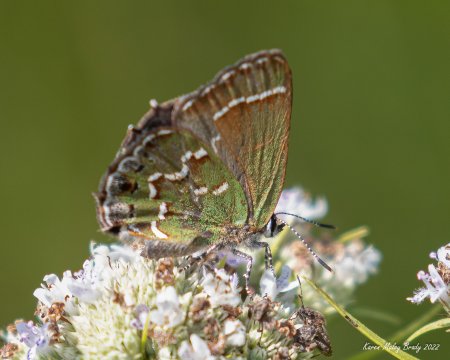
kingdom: Animalia
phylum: Arthropoda
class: Insecta
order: Lepidoptera
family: Lycaenidae
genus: Mitoura
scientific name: Mitoura gryneus
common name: Juniper Hairstreak
